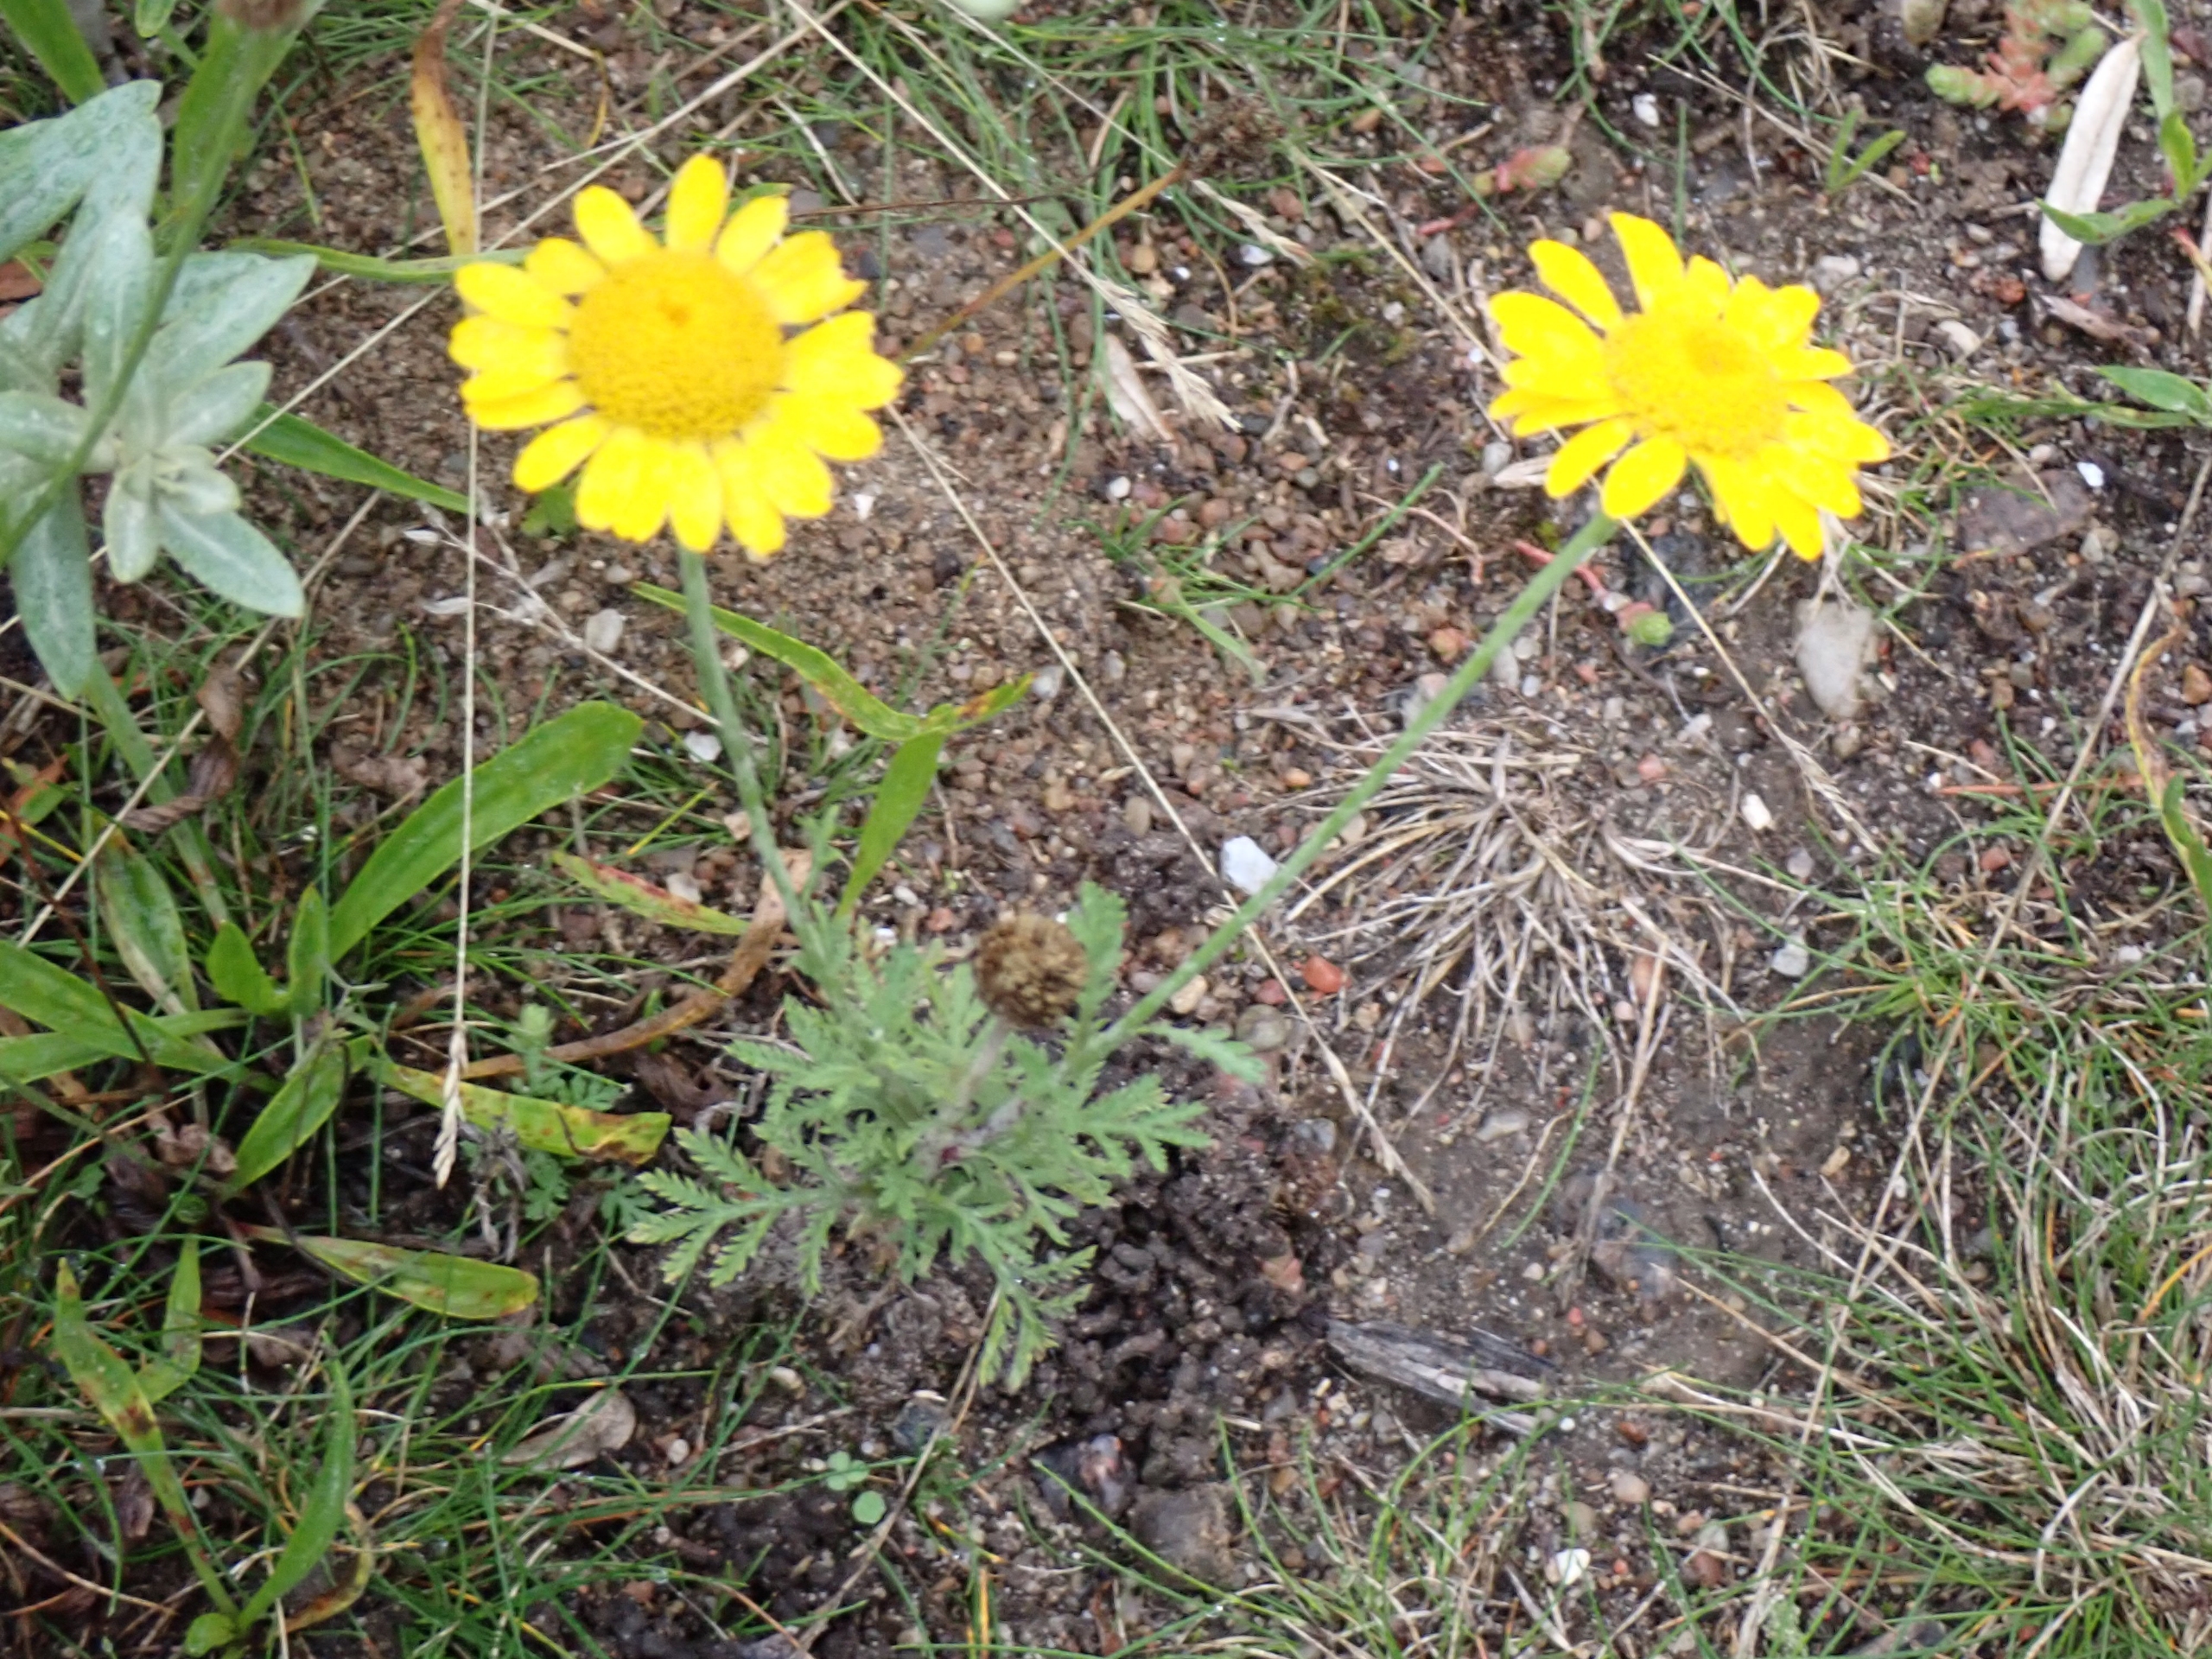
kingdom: Plantae
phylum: Tracheophyta
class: Magnoliopsida
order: Asterales
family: Asteraceae
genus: Cota
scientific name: Cota tinctoria
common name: Farve-gåseurt
